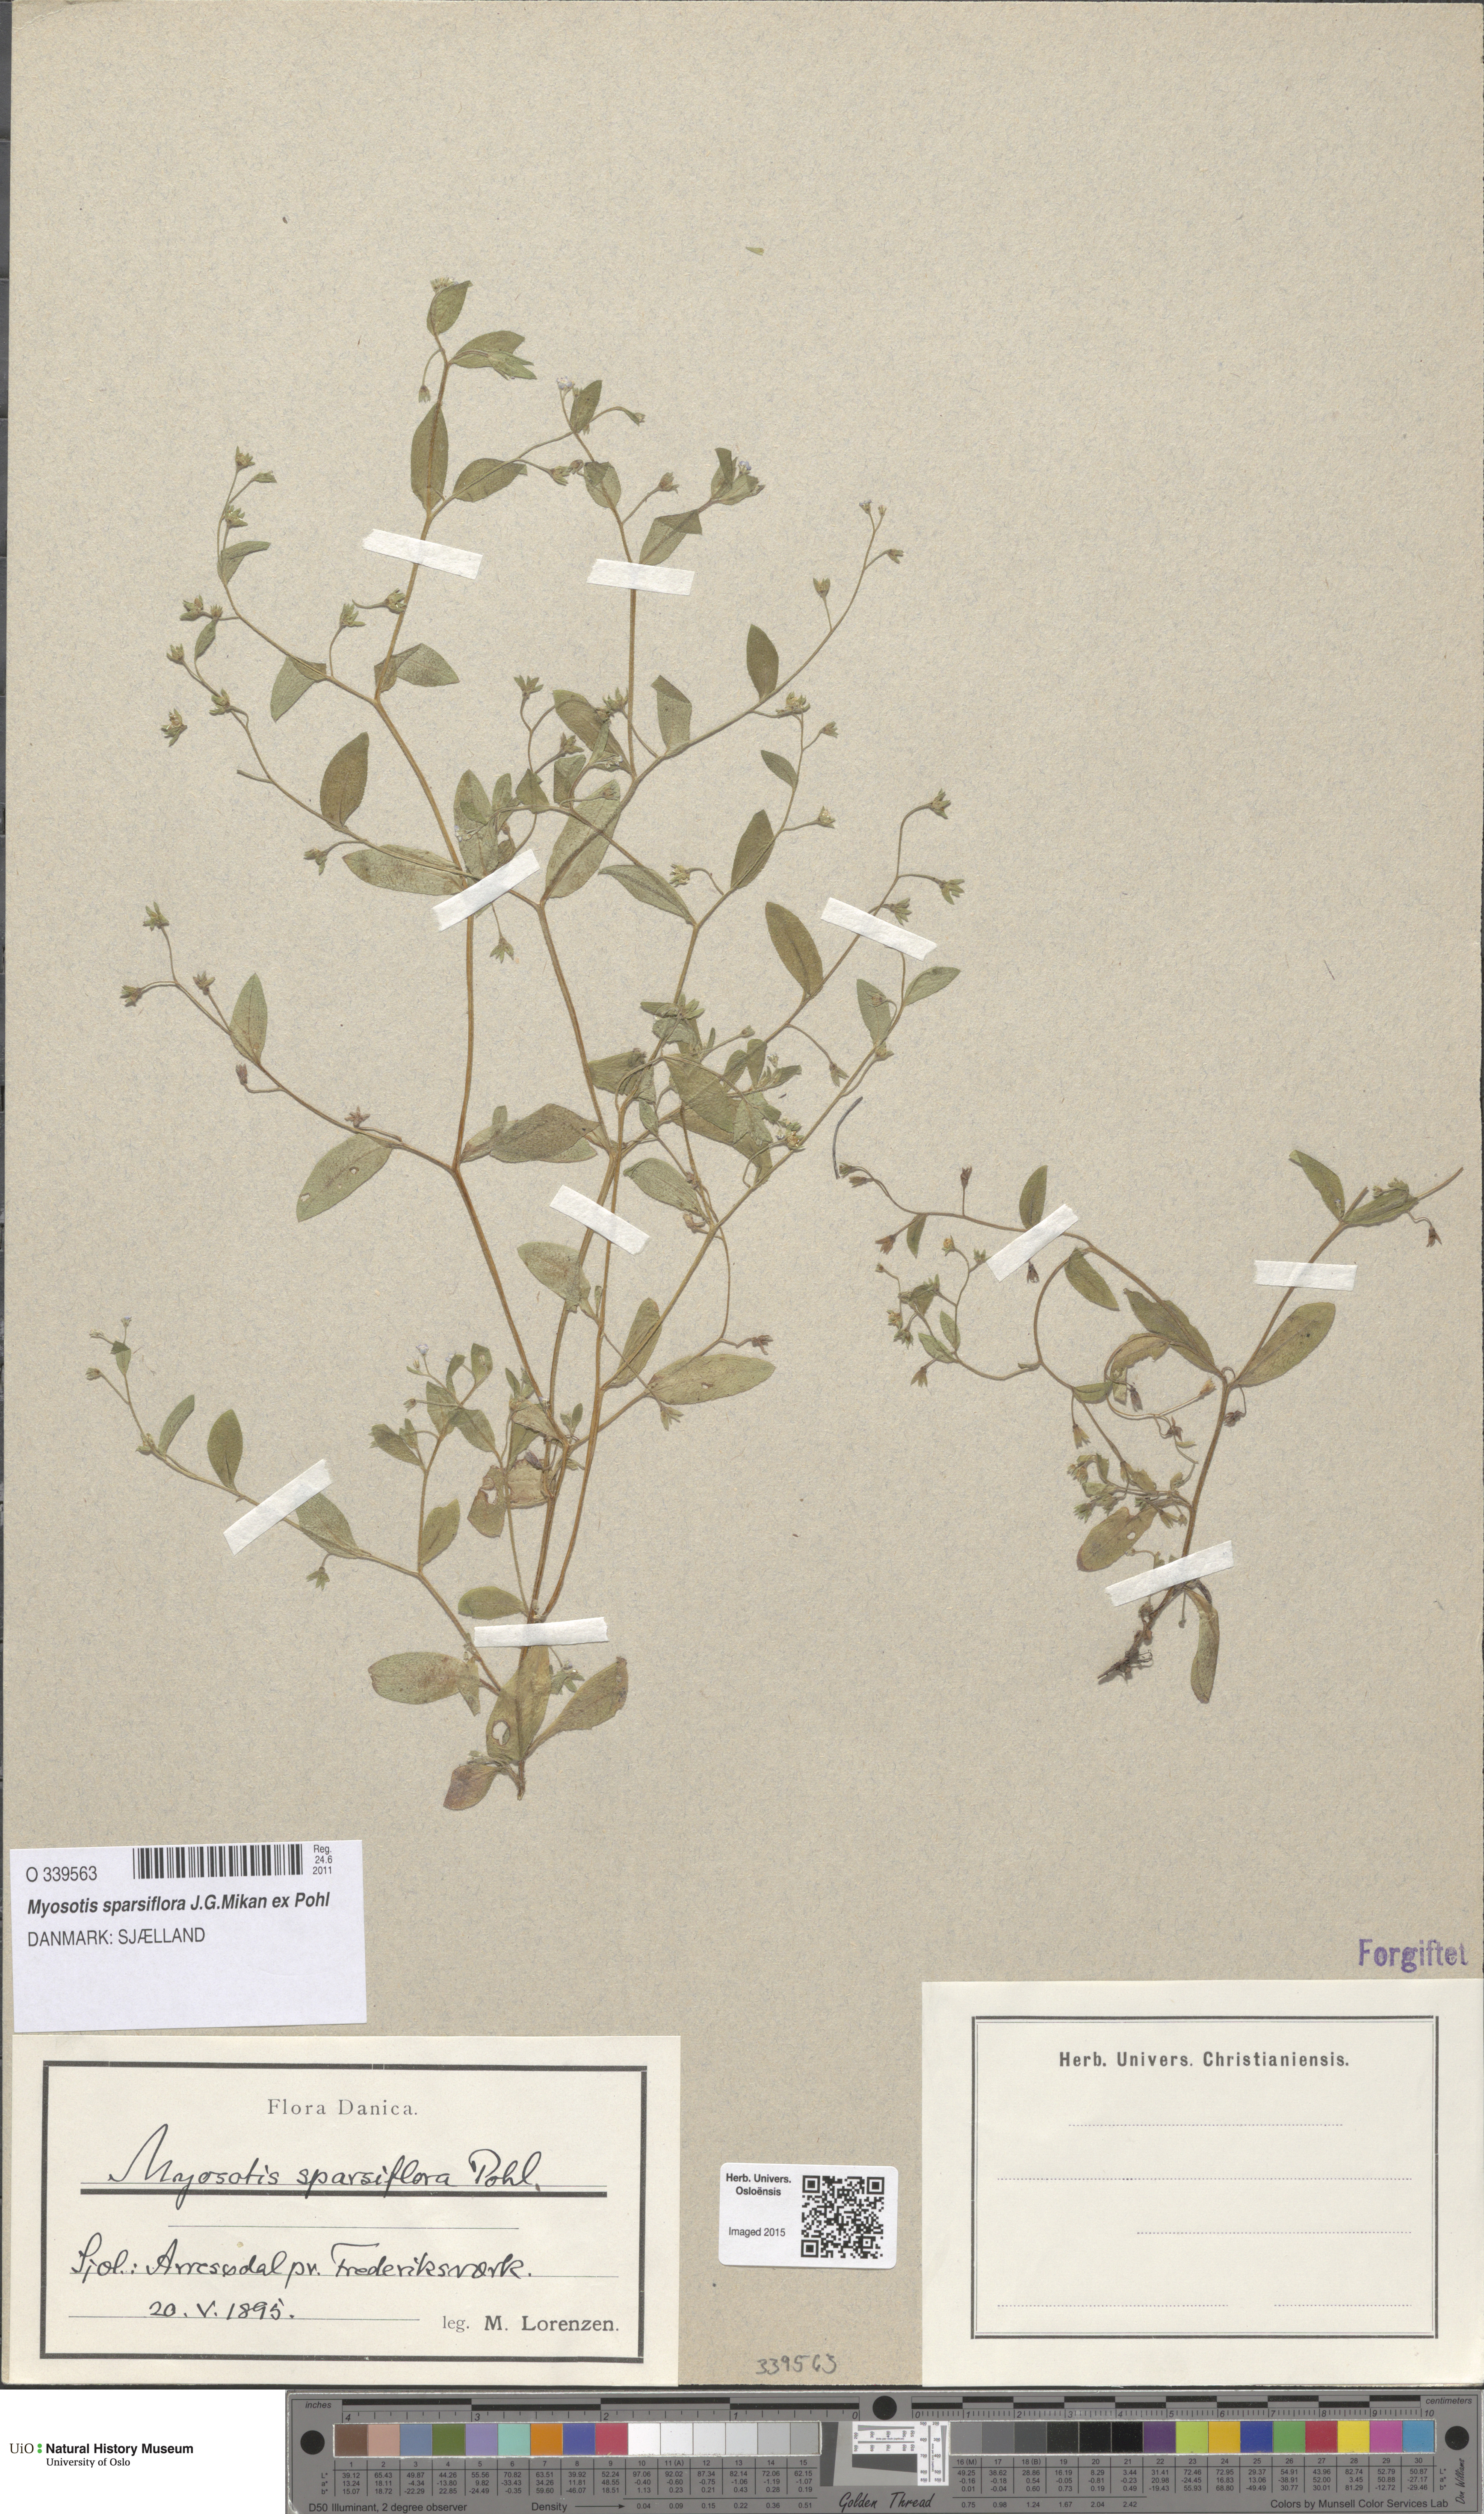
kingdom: Plantae
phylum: Tracheophyta
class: Magnoliopsida
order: Boraginales
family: Boraginaceae
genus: Myosotis
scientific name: Myosotis sparsiflora
